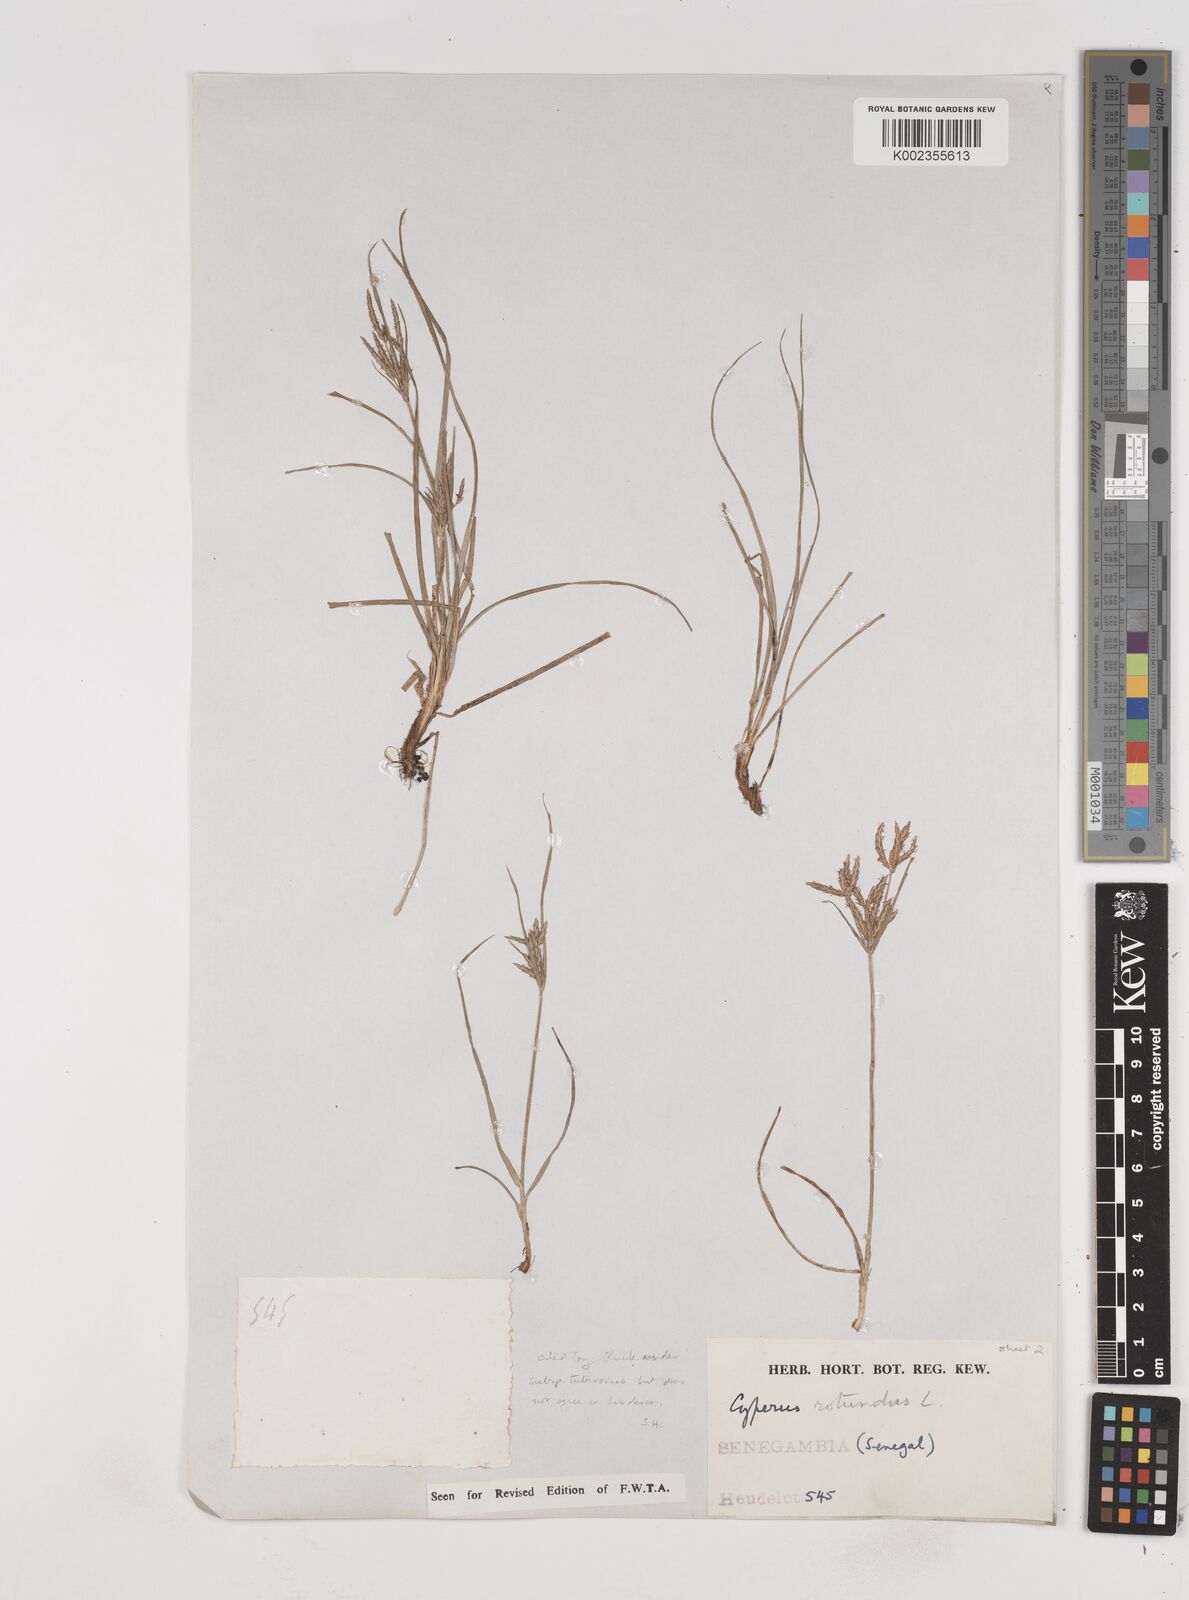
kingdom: Plantae
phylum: Tracheophyta
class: Liliopsida
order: Poales
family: Cyperaceae
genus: Cyperus
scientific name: Cyperus rotundus
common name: Nutgrass
